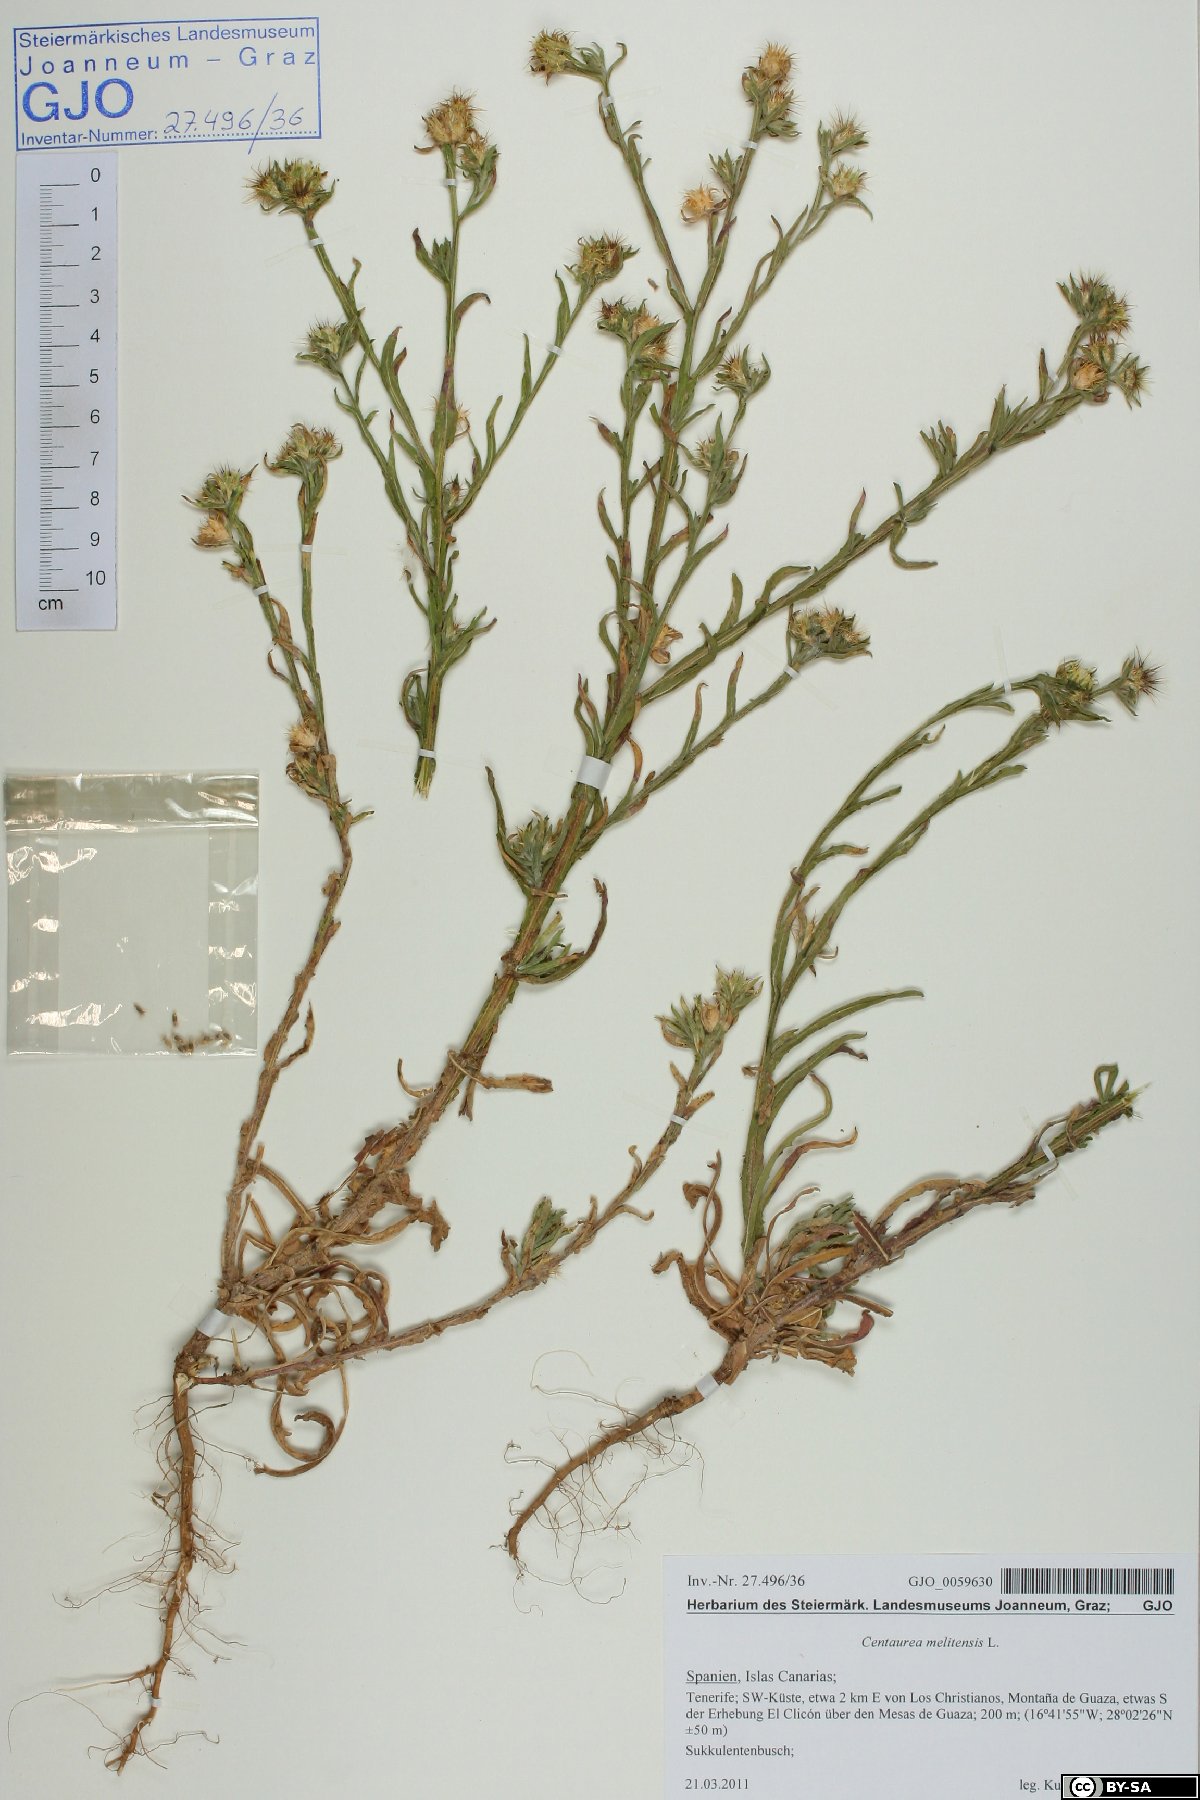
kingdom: Plantae
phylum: Tracheophyta
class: Magnoliopsida
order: Asterales
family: Asteraceae
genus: Centaurea
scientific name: Centaurea melitensis
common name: Maltese star-thistle
